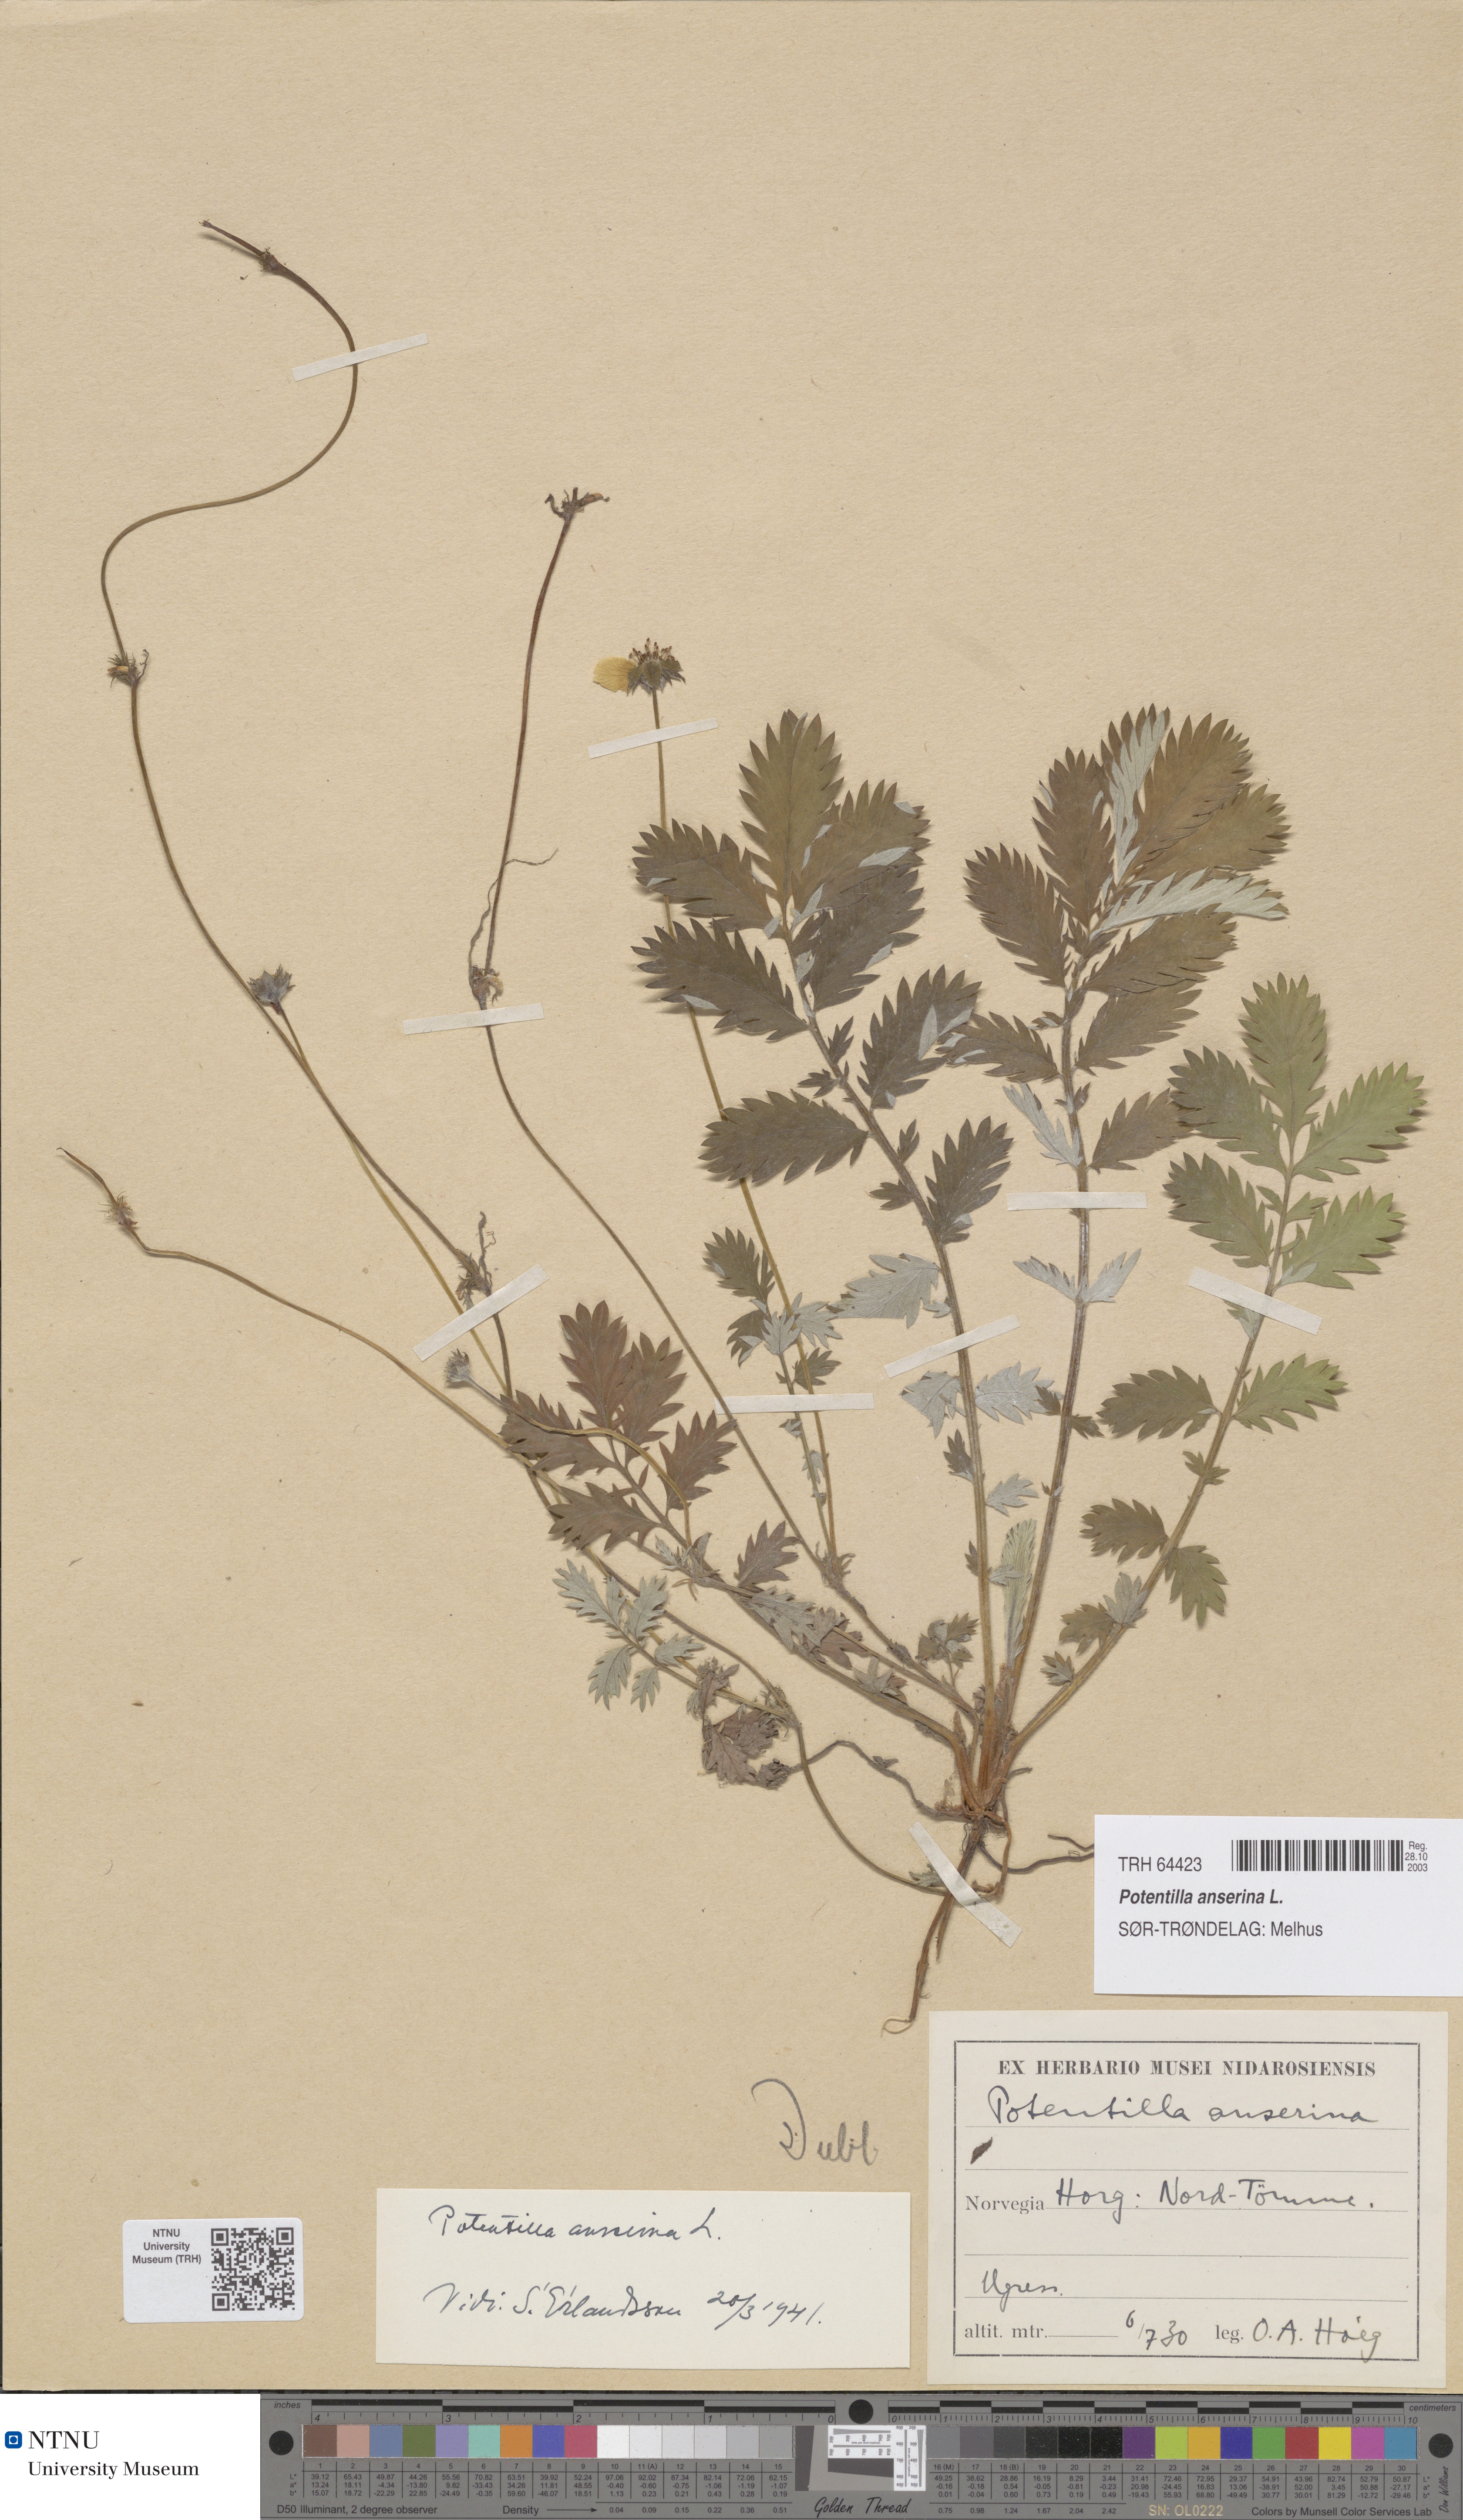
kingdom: Plantae
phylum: Tracheophyta
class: Magnoliopsida
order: Rosales
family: Rosaceae
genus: Argentina
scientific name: Argentina anserina
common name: Common silverweed
